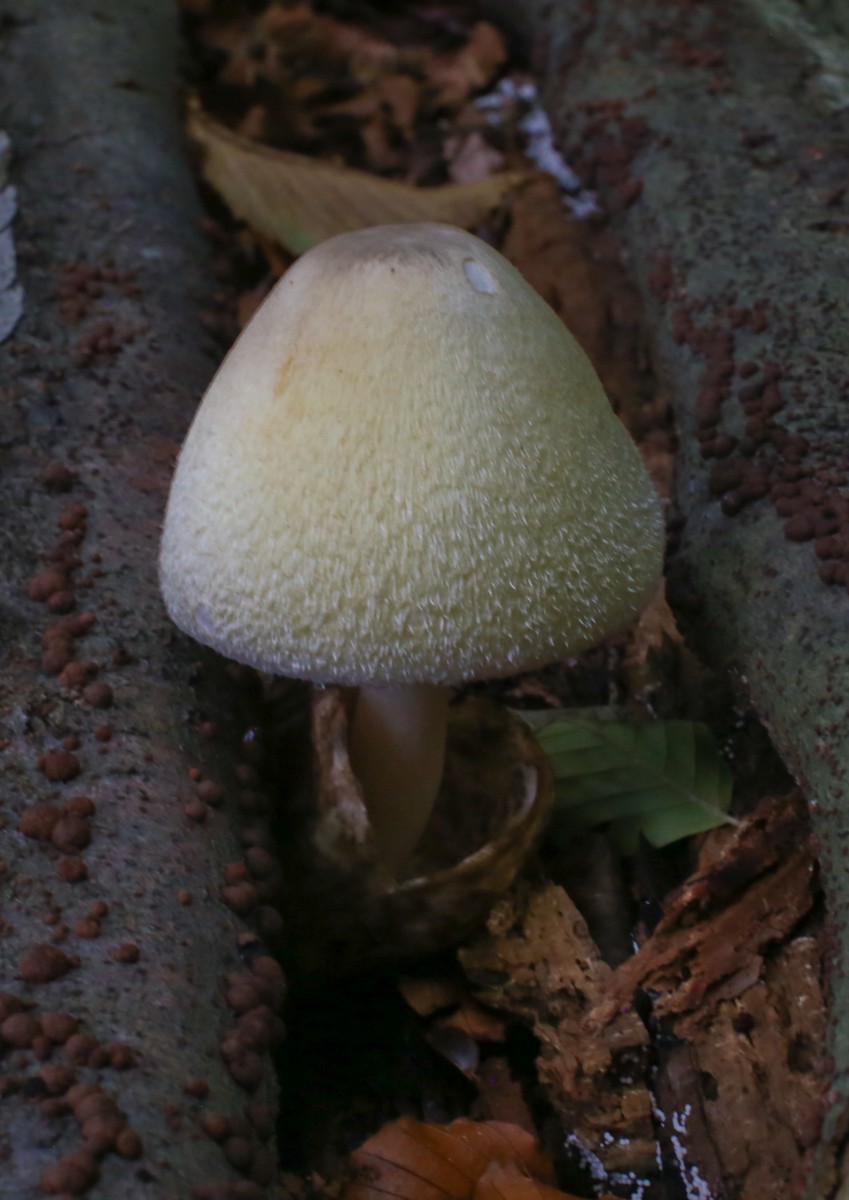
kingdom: Fungi
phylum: Basidiomycota
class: Agaricomycetes
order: Agaricales
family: Pluteaceae
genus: Volvariella
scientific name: Volvariella bombycina
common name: silkehåret posesvamp
